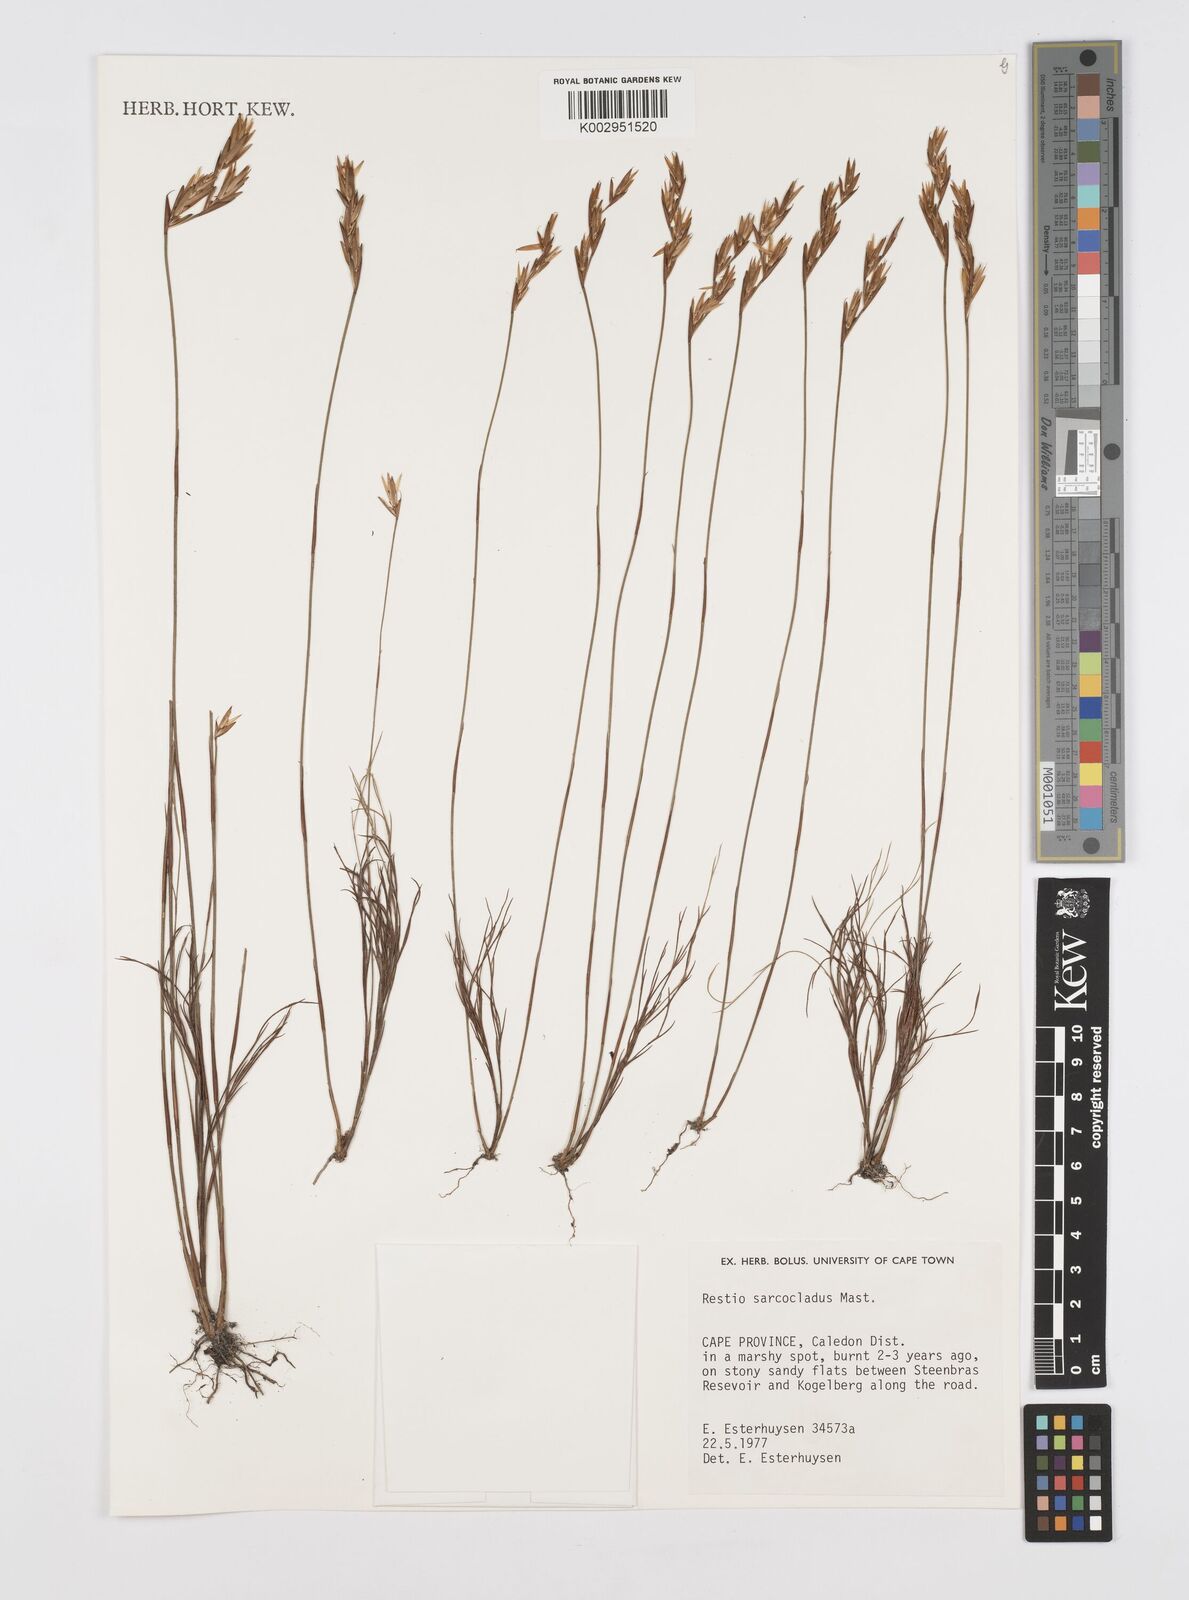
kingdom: Plantae
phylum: Tracheophyta
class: Liliopsida
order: Poales
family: Restionaceae
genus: Restio
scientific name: Restio saroclados
